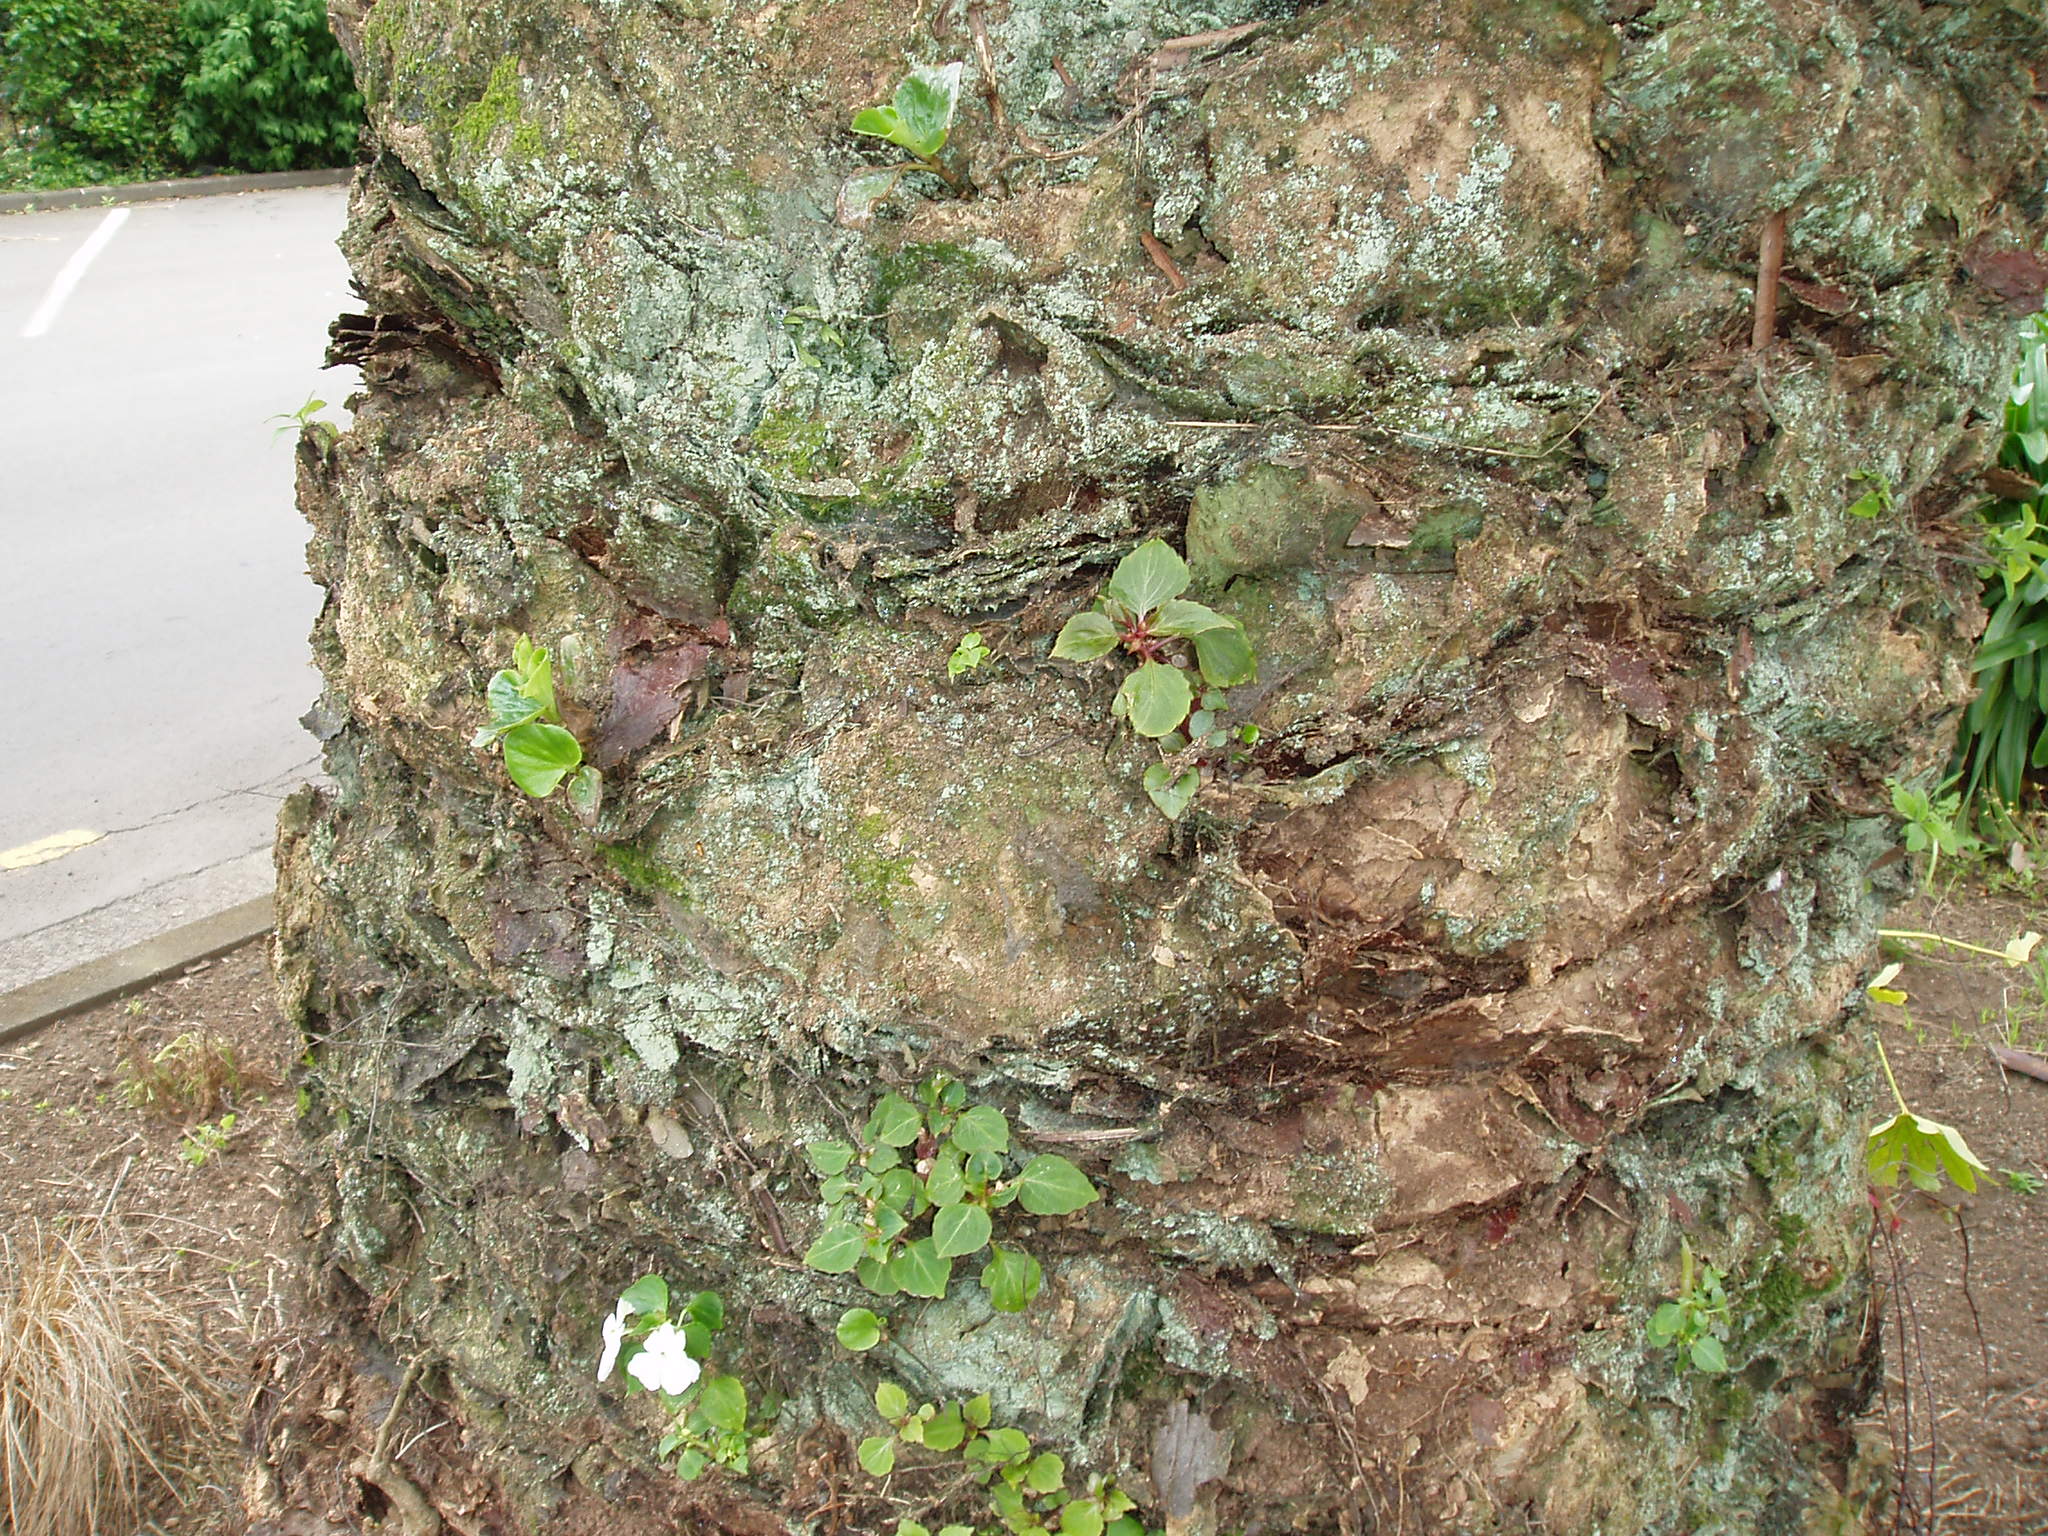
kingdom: Plantae
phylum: Tracheophyta
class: Magnoliopsida
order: Ericales
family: Balsaminaceae
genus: Impatiens
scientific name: Impatiens walleriana
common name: Buzzy lizzy
